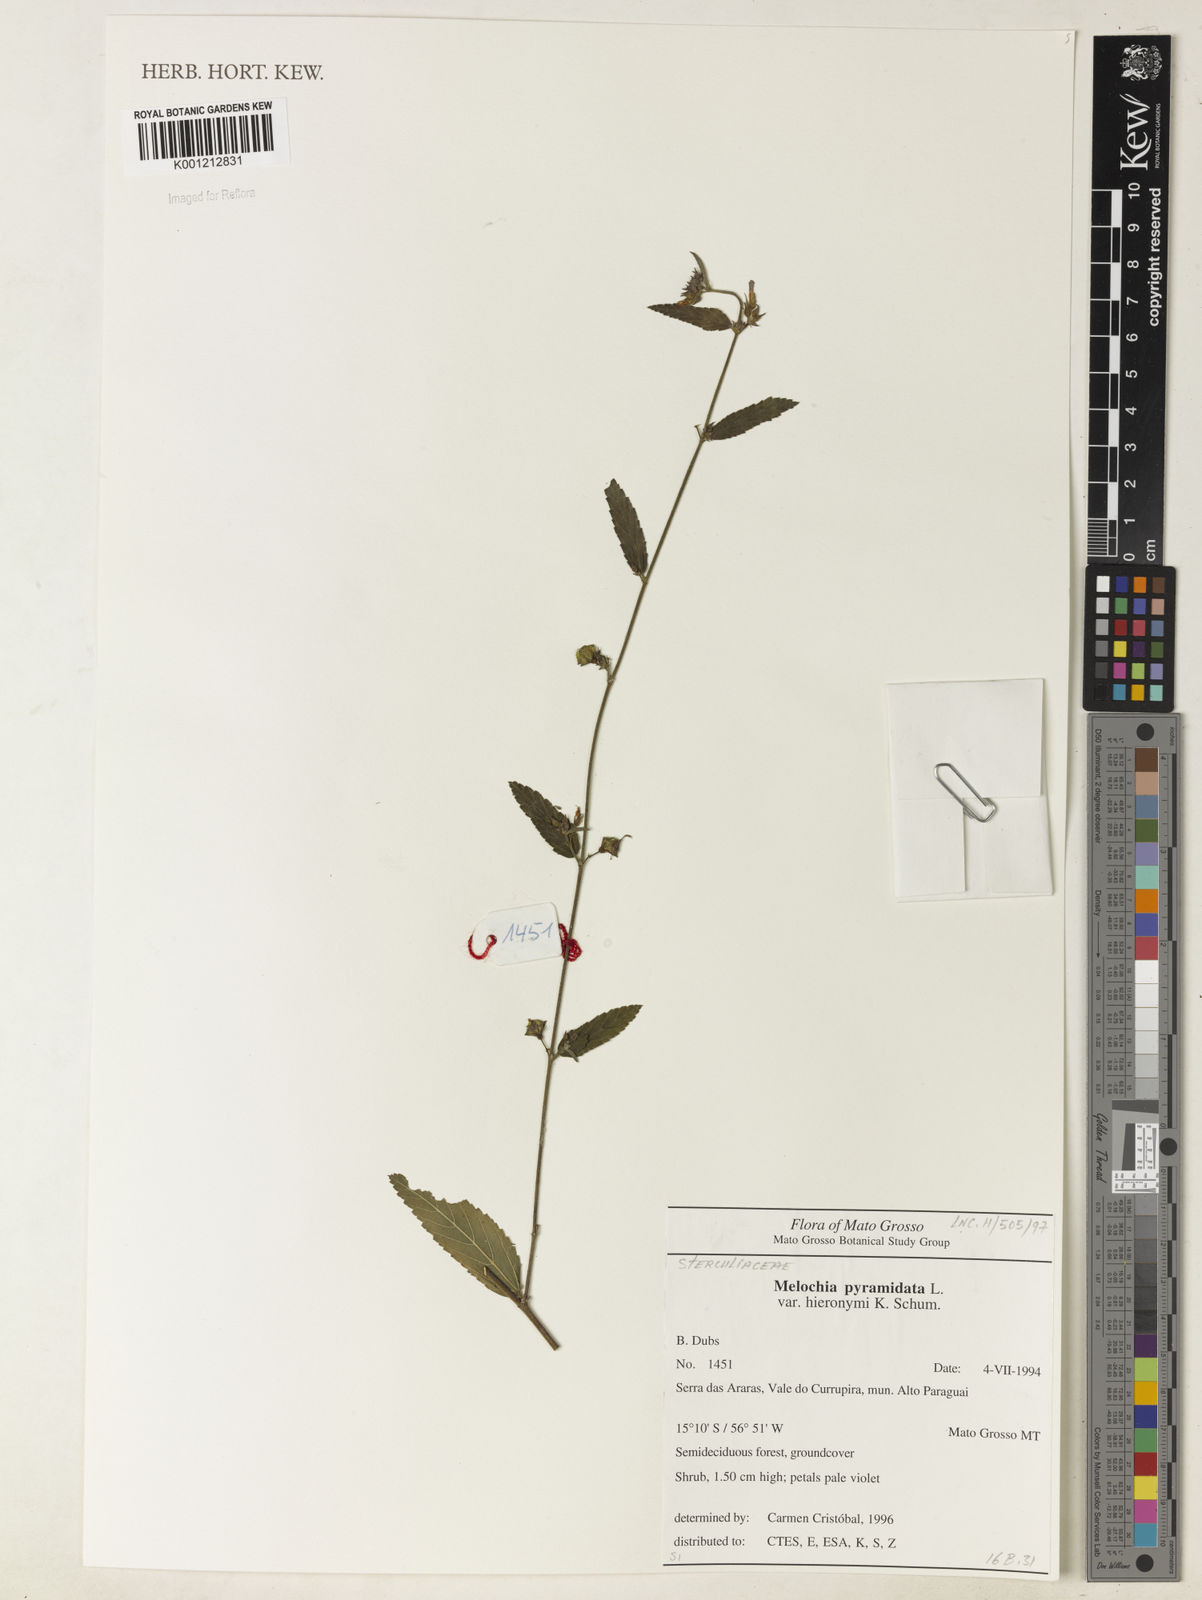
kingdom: Plantae
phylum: Tracheophyta
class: Magnoliopsida
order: Malvales
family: Malvaceae
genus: Melochia
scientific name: Melochia pyramidata
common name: Pyramidflower
